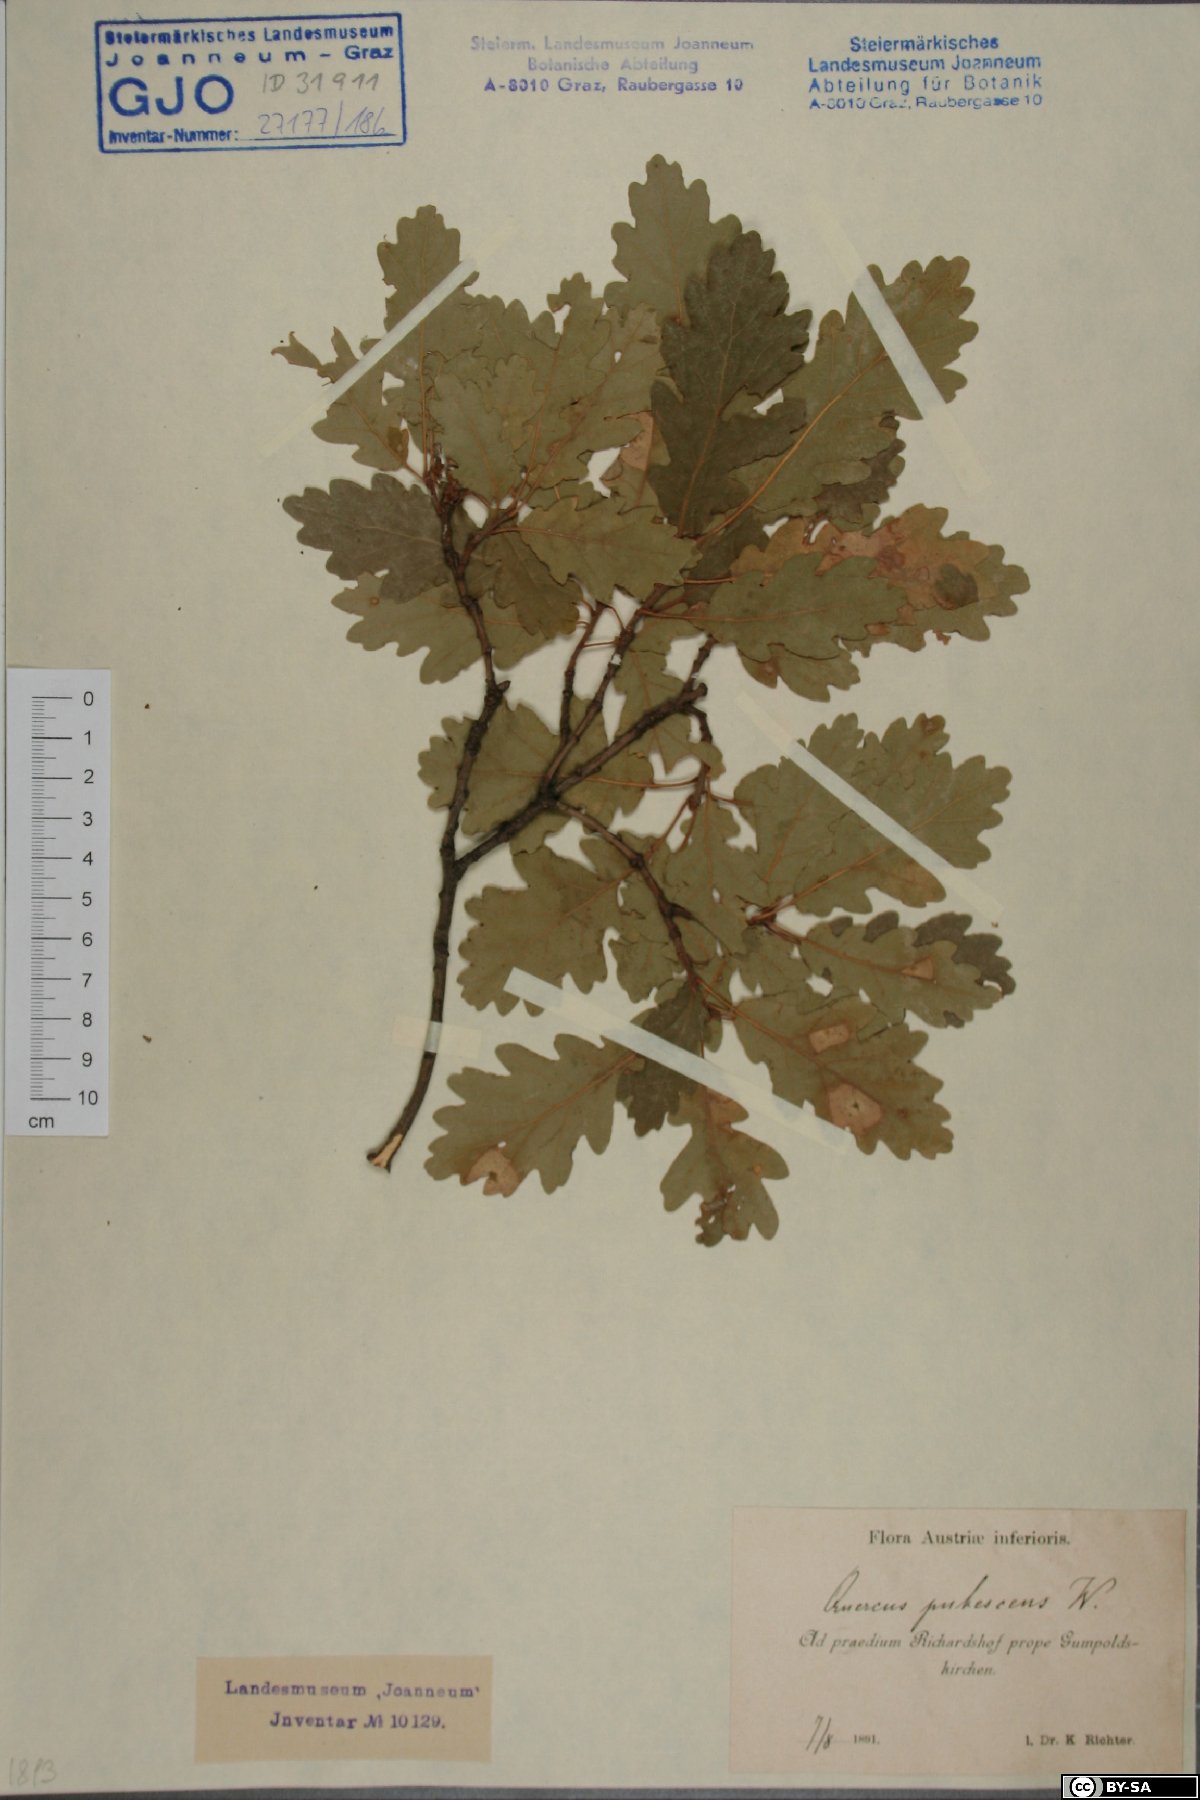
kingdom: Plantae
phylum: Tracheophyta
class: Magnoliopsida
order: Fagales
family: Fagaceae
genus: Quercus
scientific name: Quercus pubescens
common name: Downy oak
